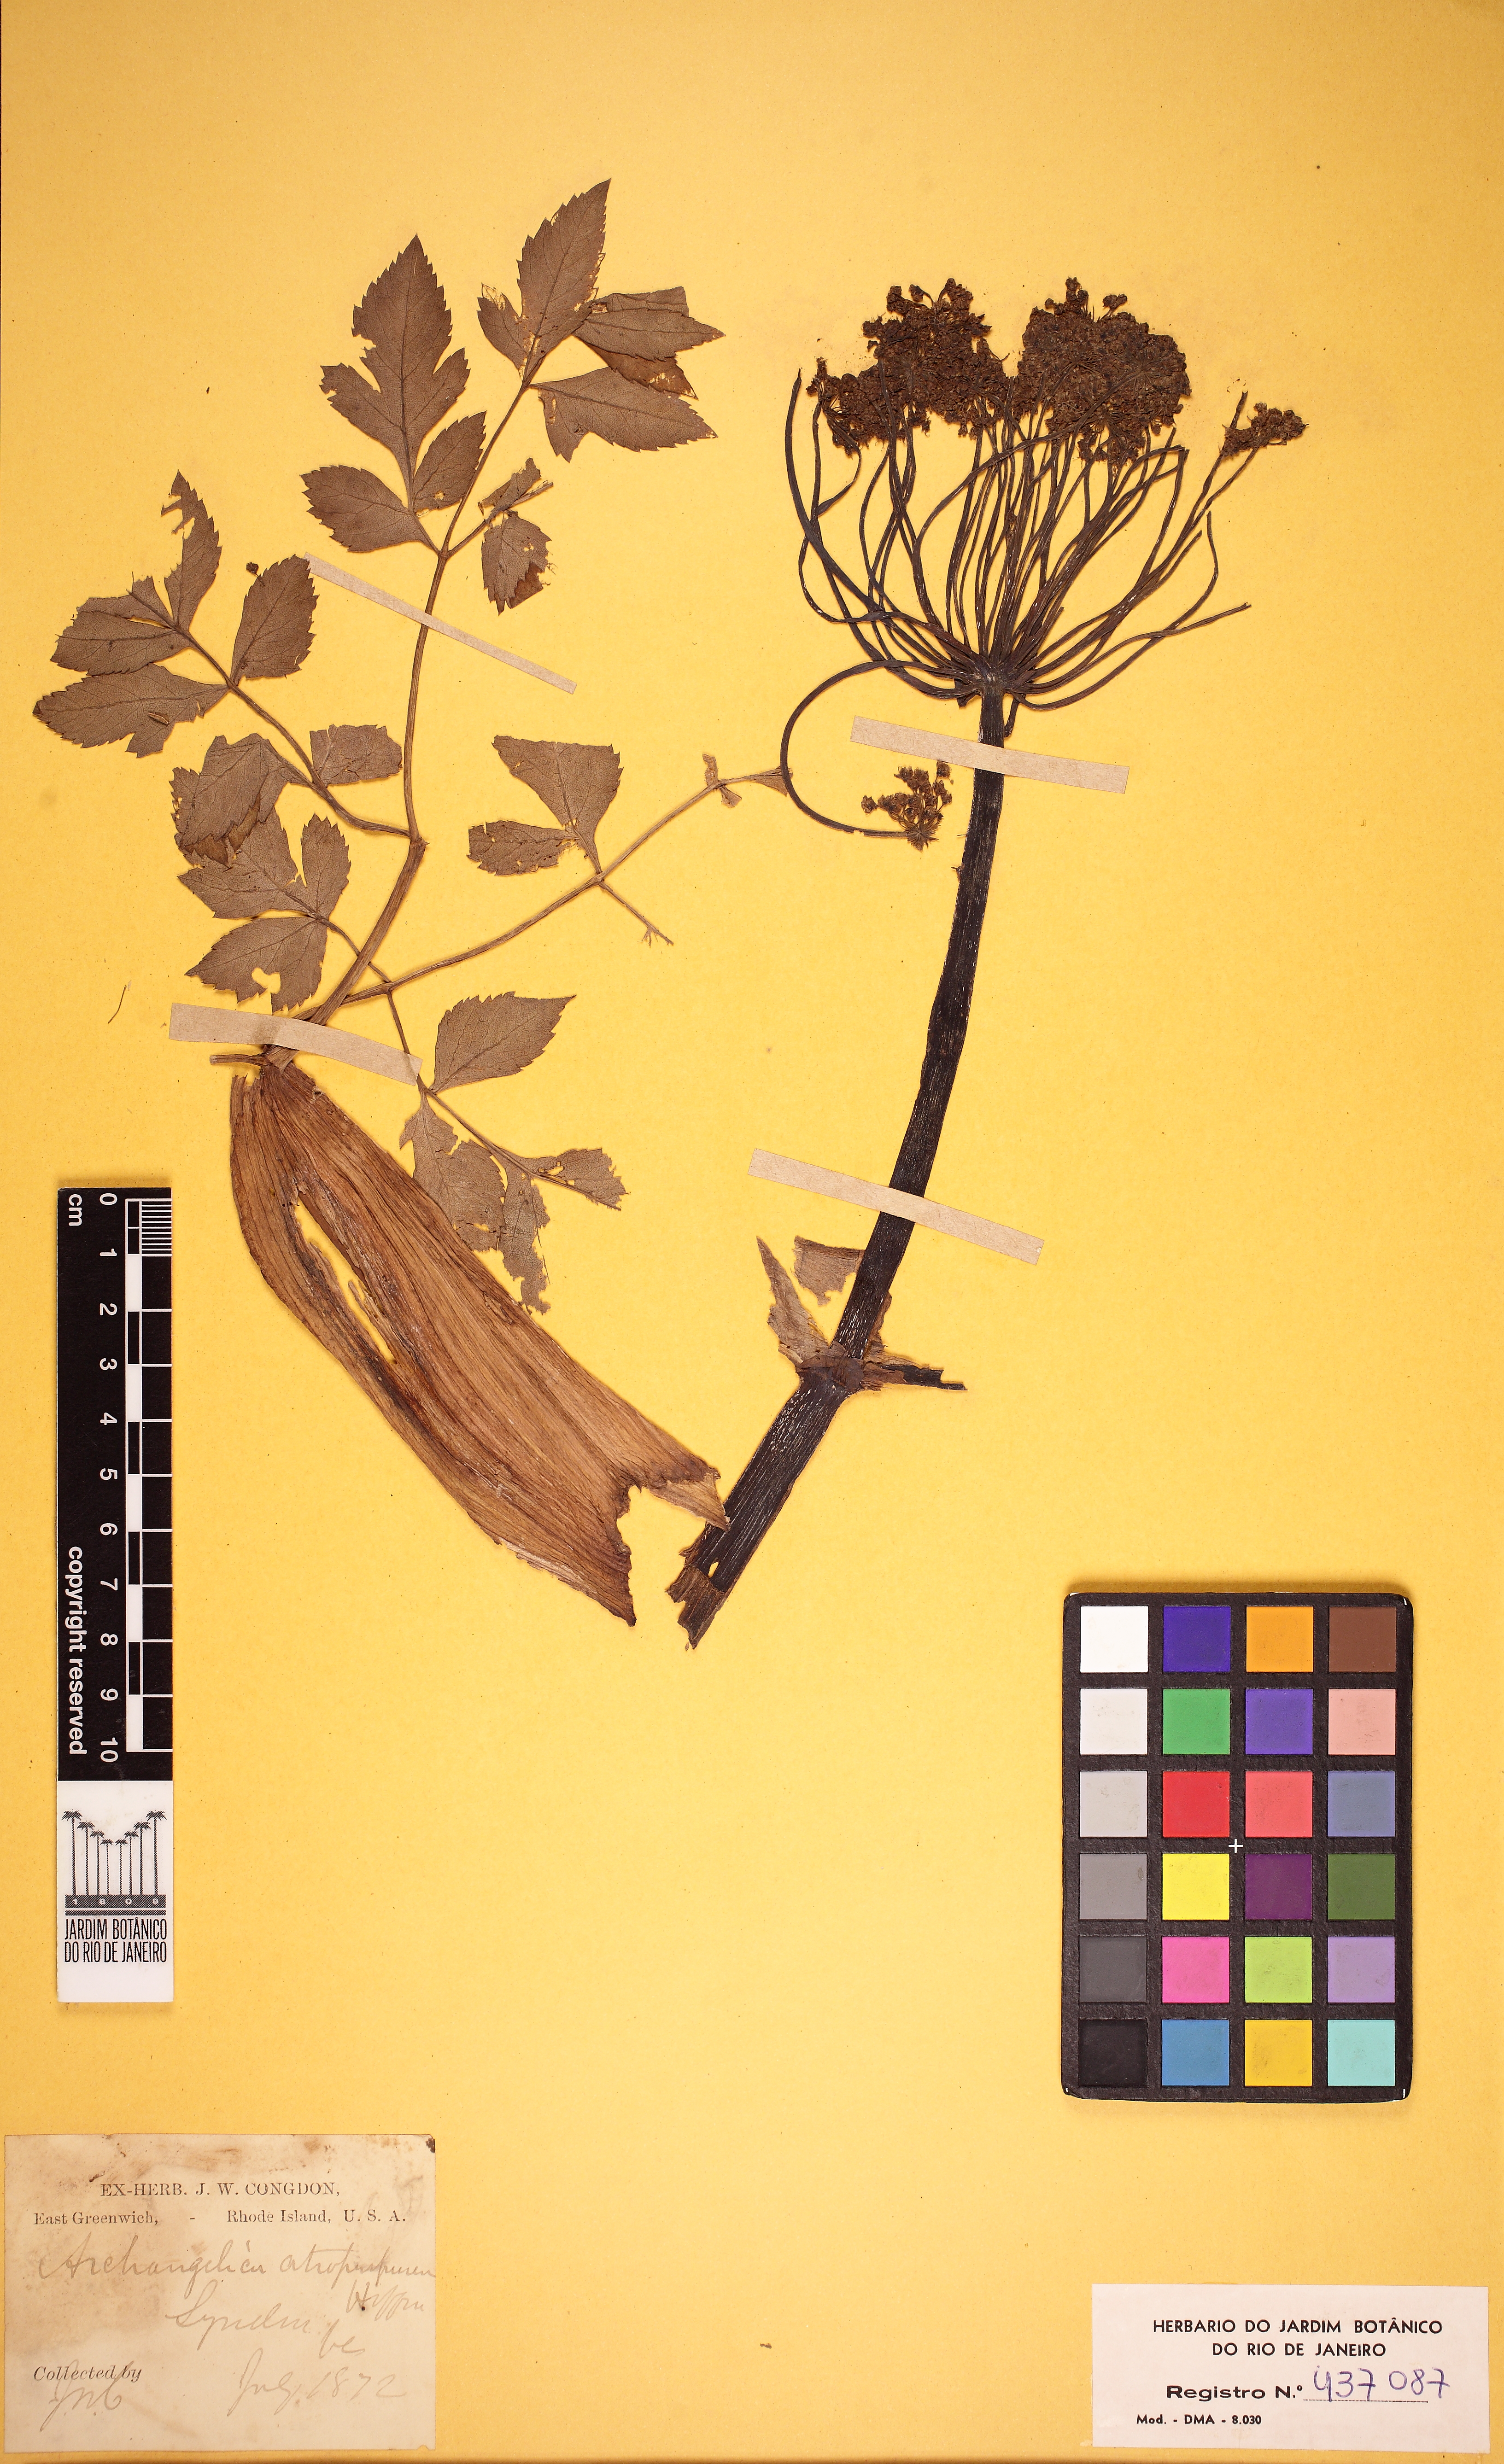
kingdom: Plantae
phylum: Tracheophyta
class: Magnoliopsida
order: Apiales
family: Apiaceae
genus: Angelica
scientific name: Angelica atropurpurea
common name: Great angelica
